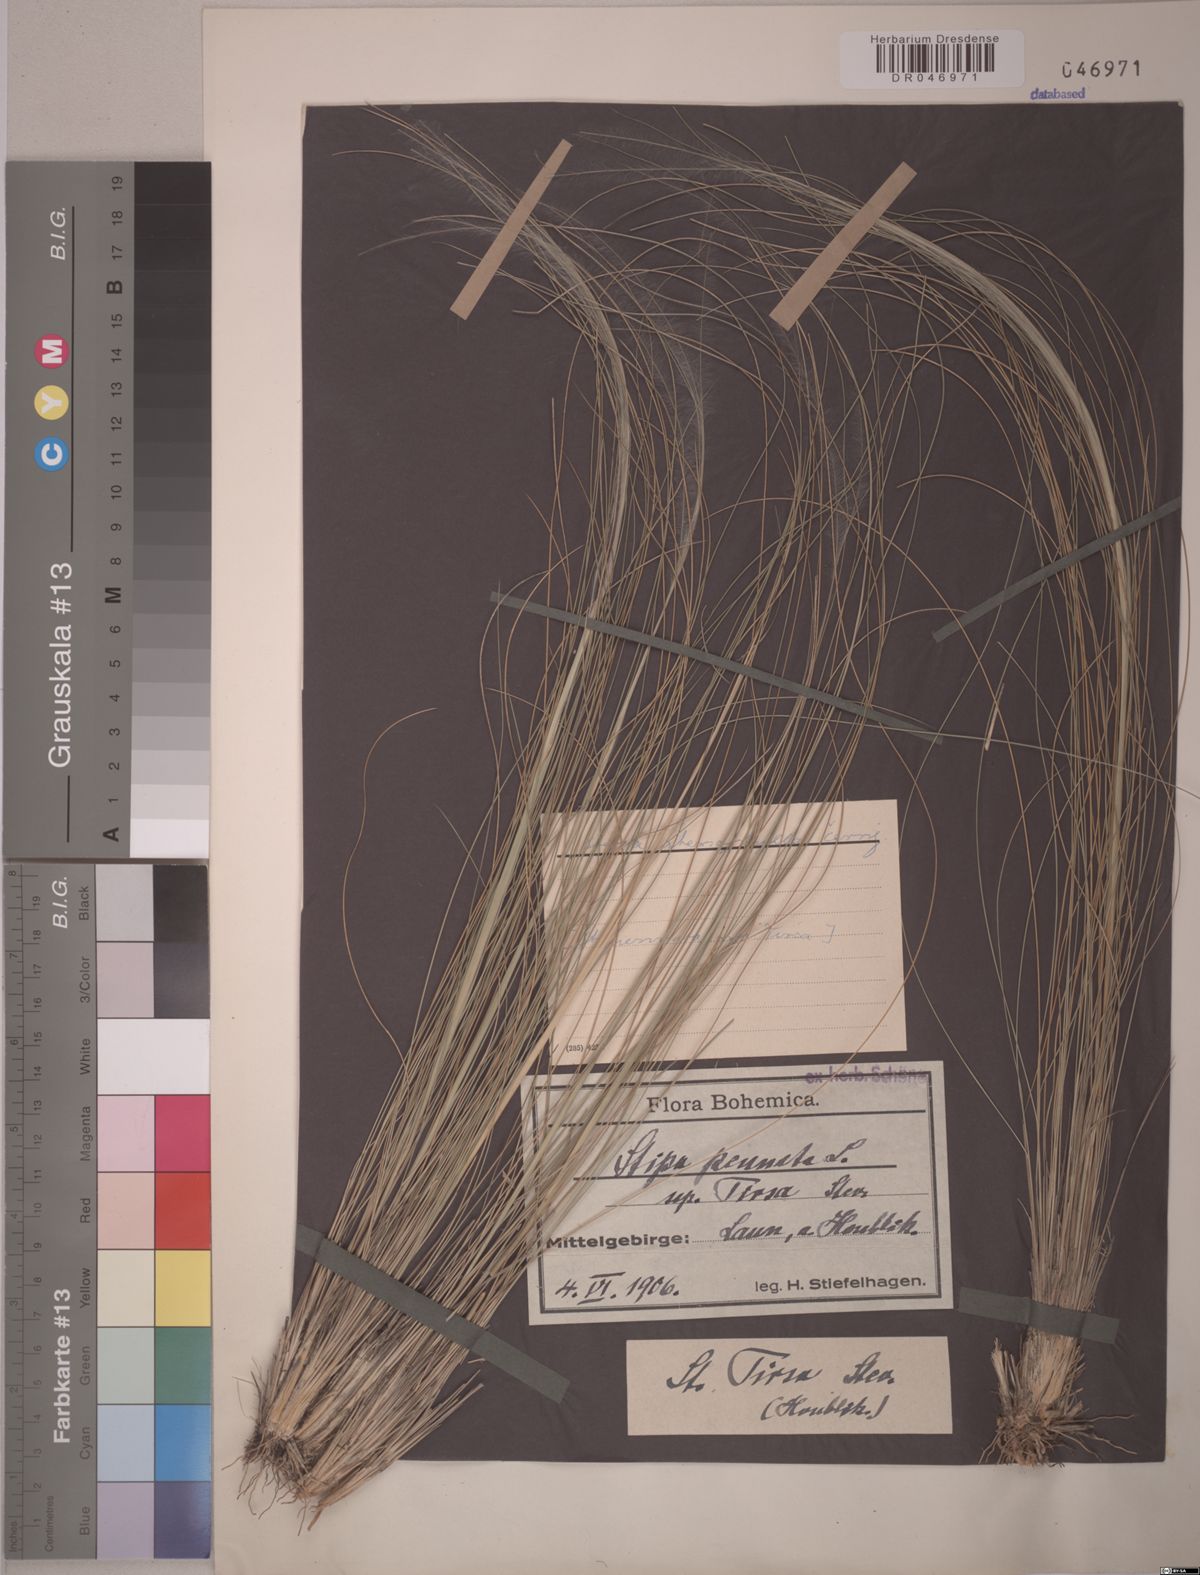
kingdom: Plantae
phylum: Tracheophyta
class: Liliopsida
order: Poales
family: Poaceae
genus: Stipa
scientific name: Stipa tirsa
